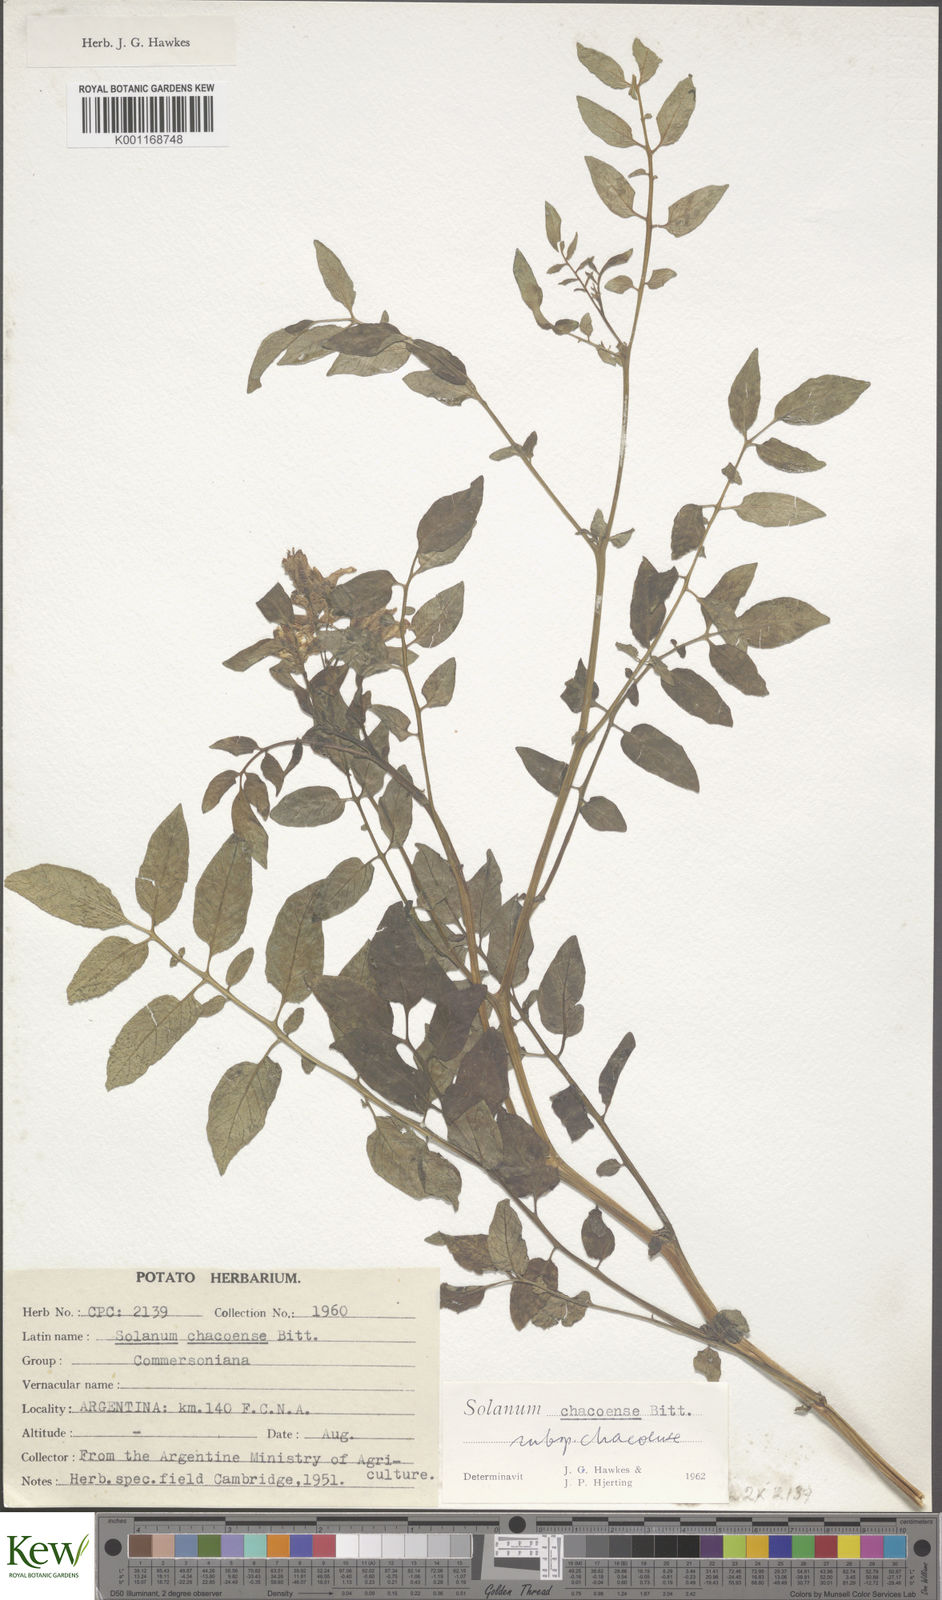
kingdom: Plantae
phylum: Tracheophyta
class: Magnoliopsida
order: Solanales
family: Solanaceae
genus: Solanum
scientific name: Solanum chacoense
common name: Chaco potato
